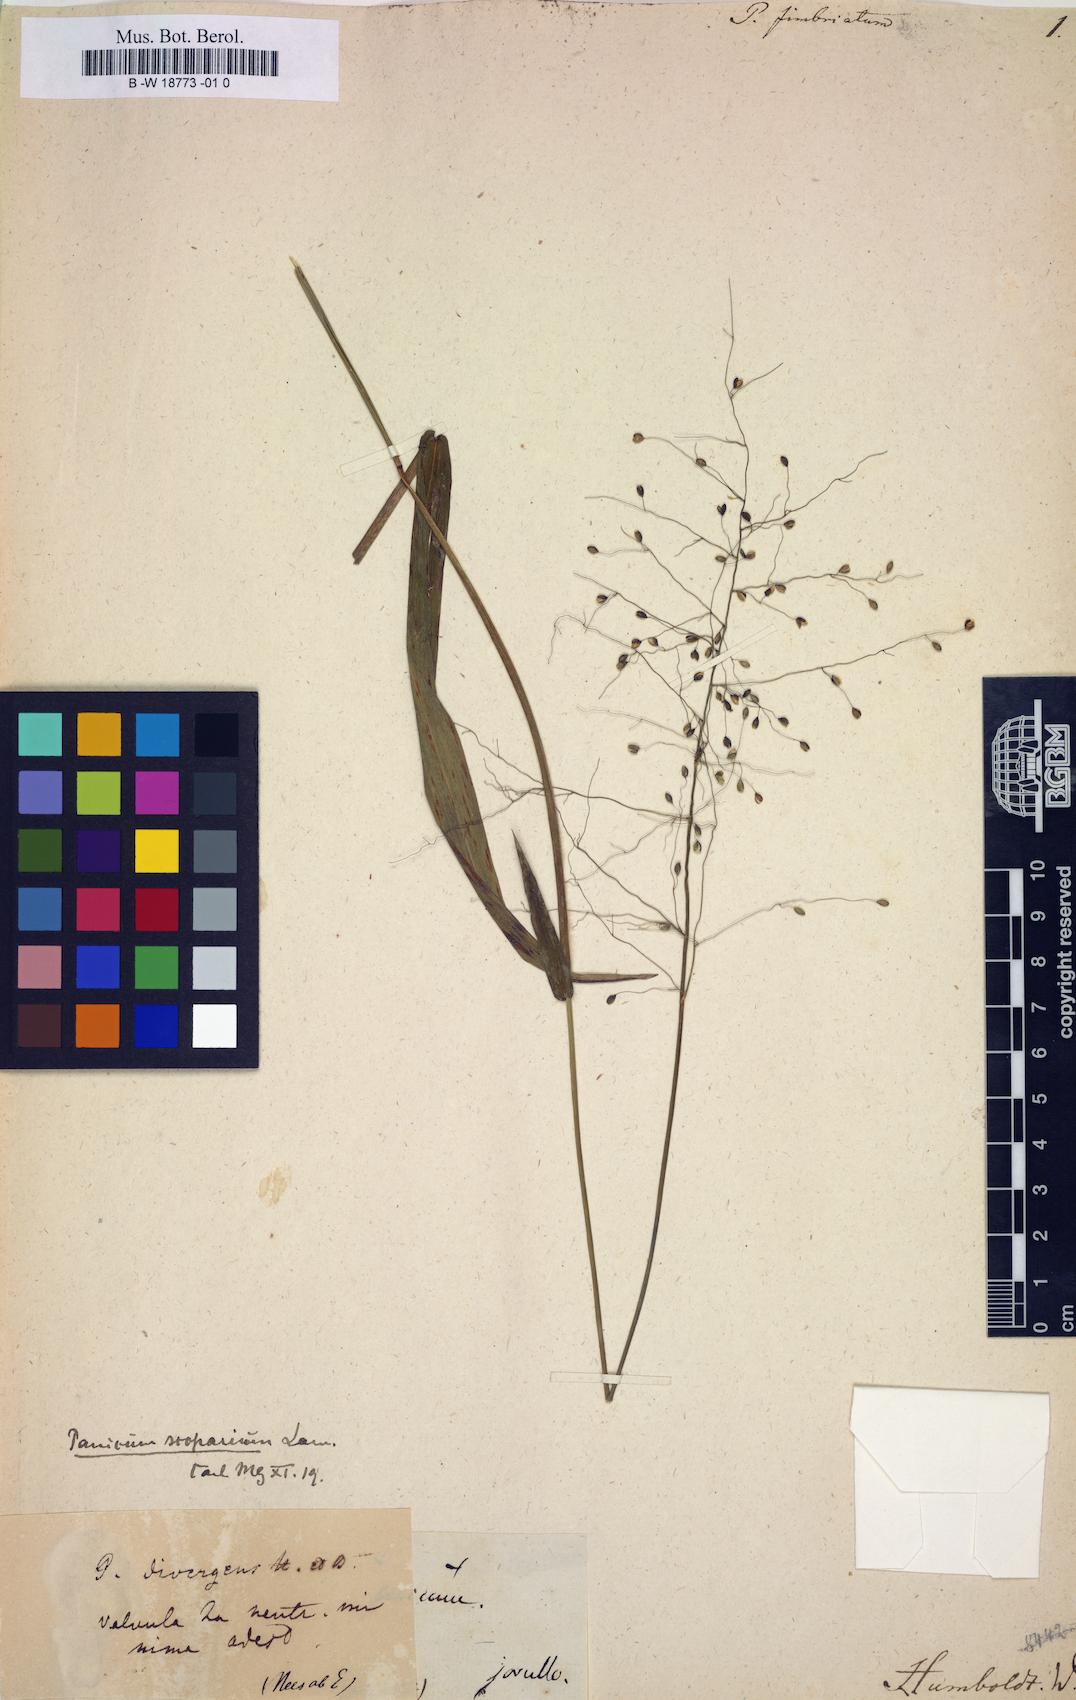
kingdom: Plantae
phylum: Tracheophyta
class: Liliopsida
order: Poales
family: Poaceae
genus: Panicum
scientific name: Panicum
